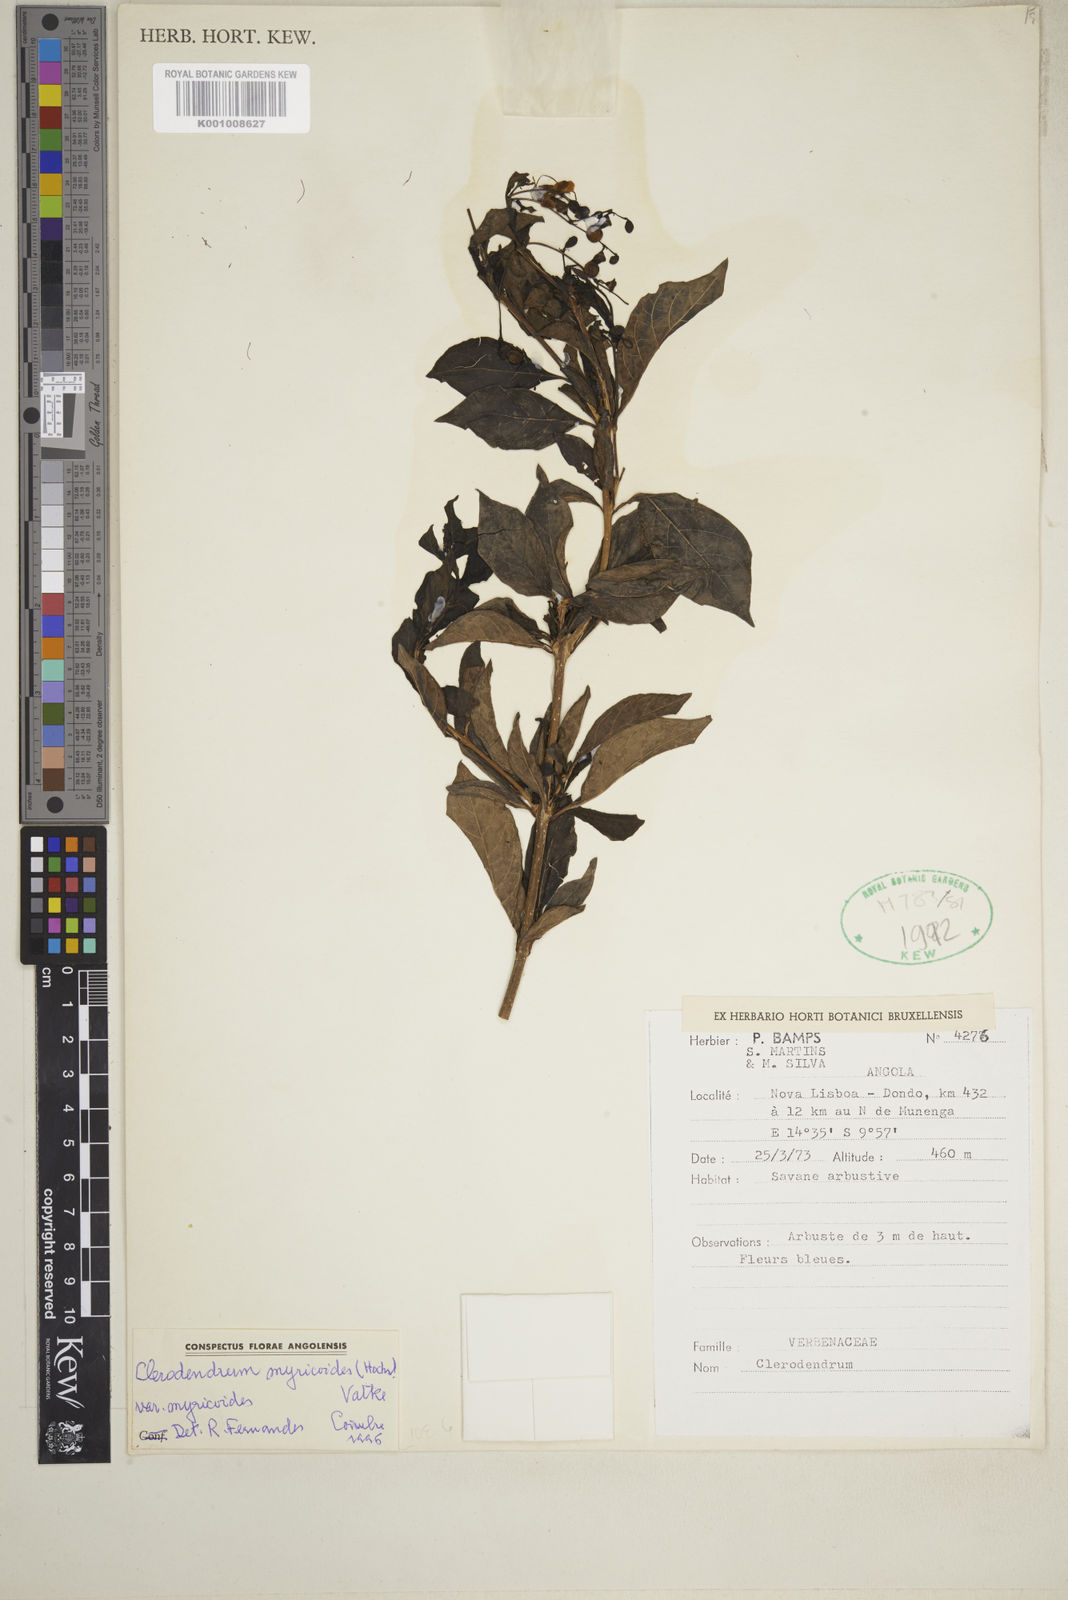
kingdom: Plantae
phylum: Tracheophyta
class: Magnoliopsida
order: Lamiales
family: Lamiaceae
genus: Rotheca
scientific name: Rotheca myricoides
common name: Cats-whiskers
